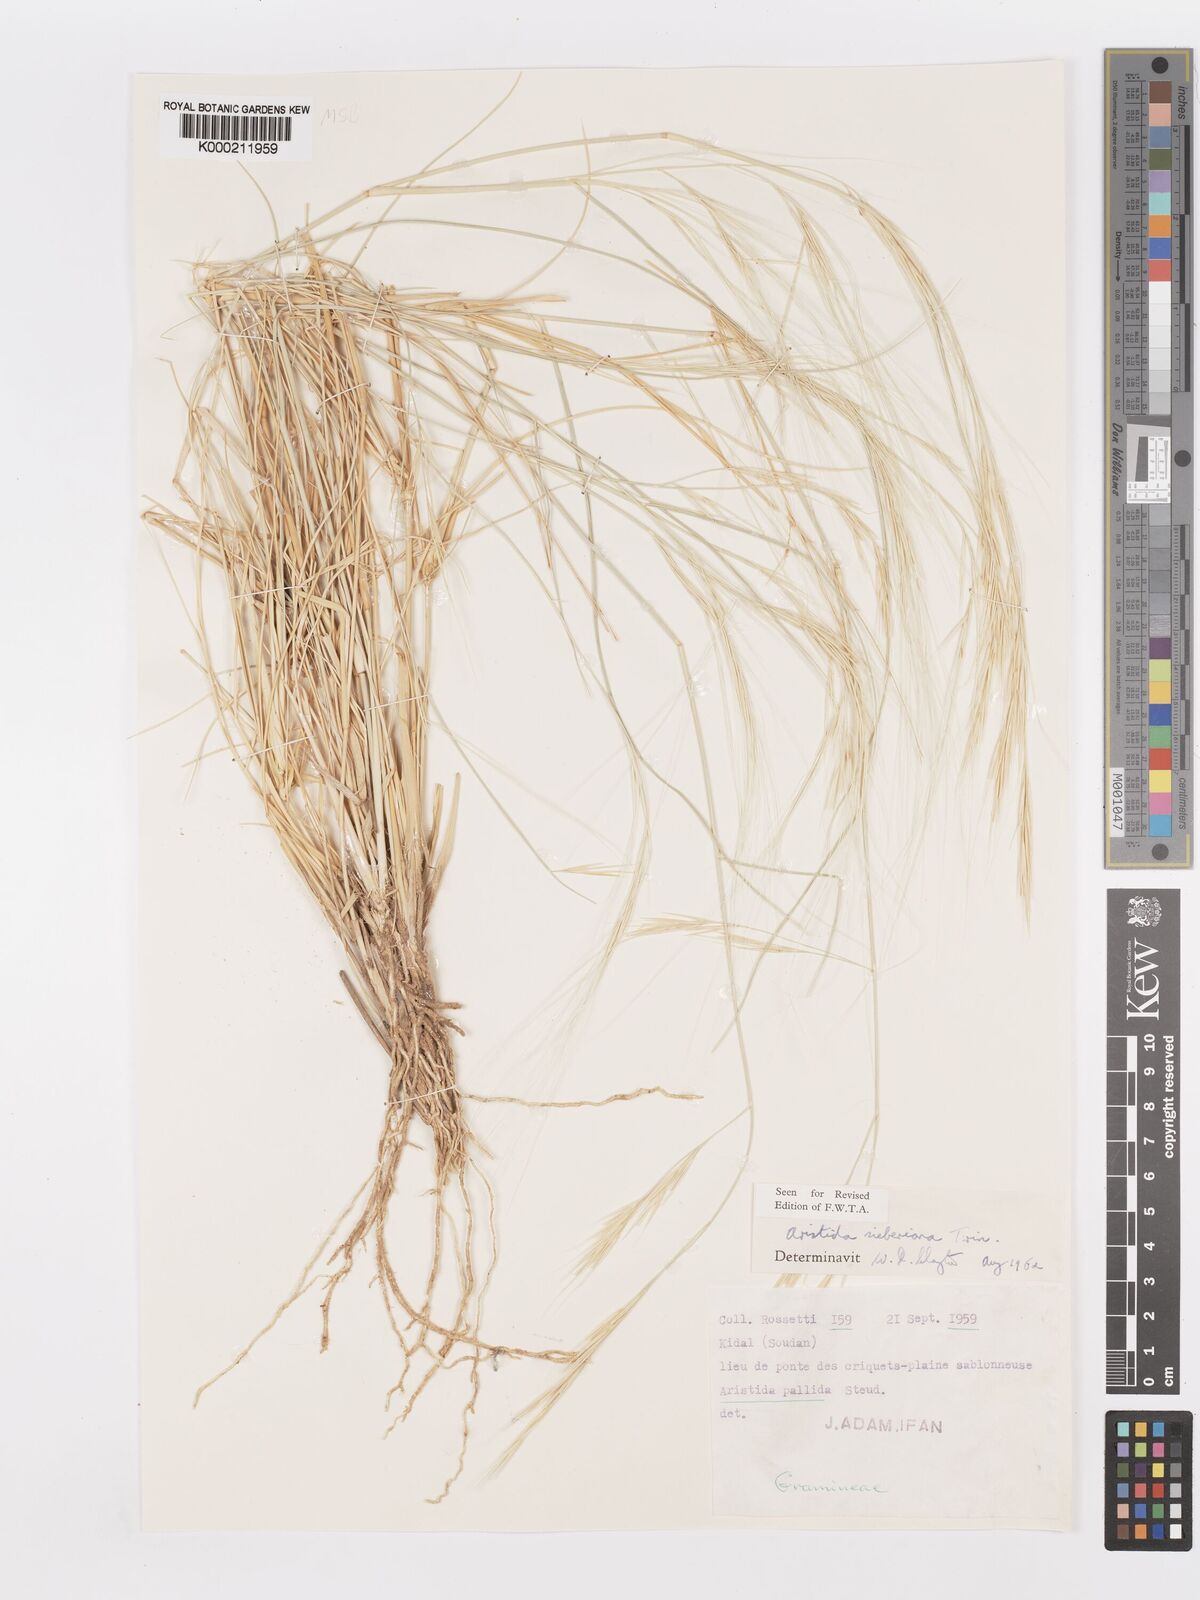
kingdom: Plantae
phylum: Tracheophyta
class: Liliopsida
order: Poales
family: Poaceae
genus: Aristida
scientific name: Aristida sieberiana
